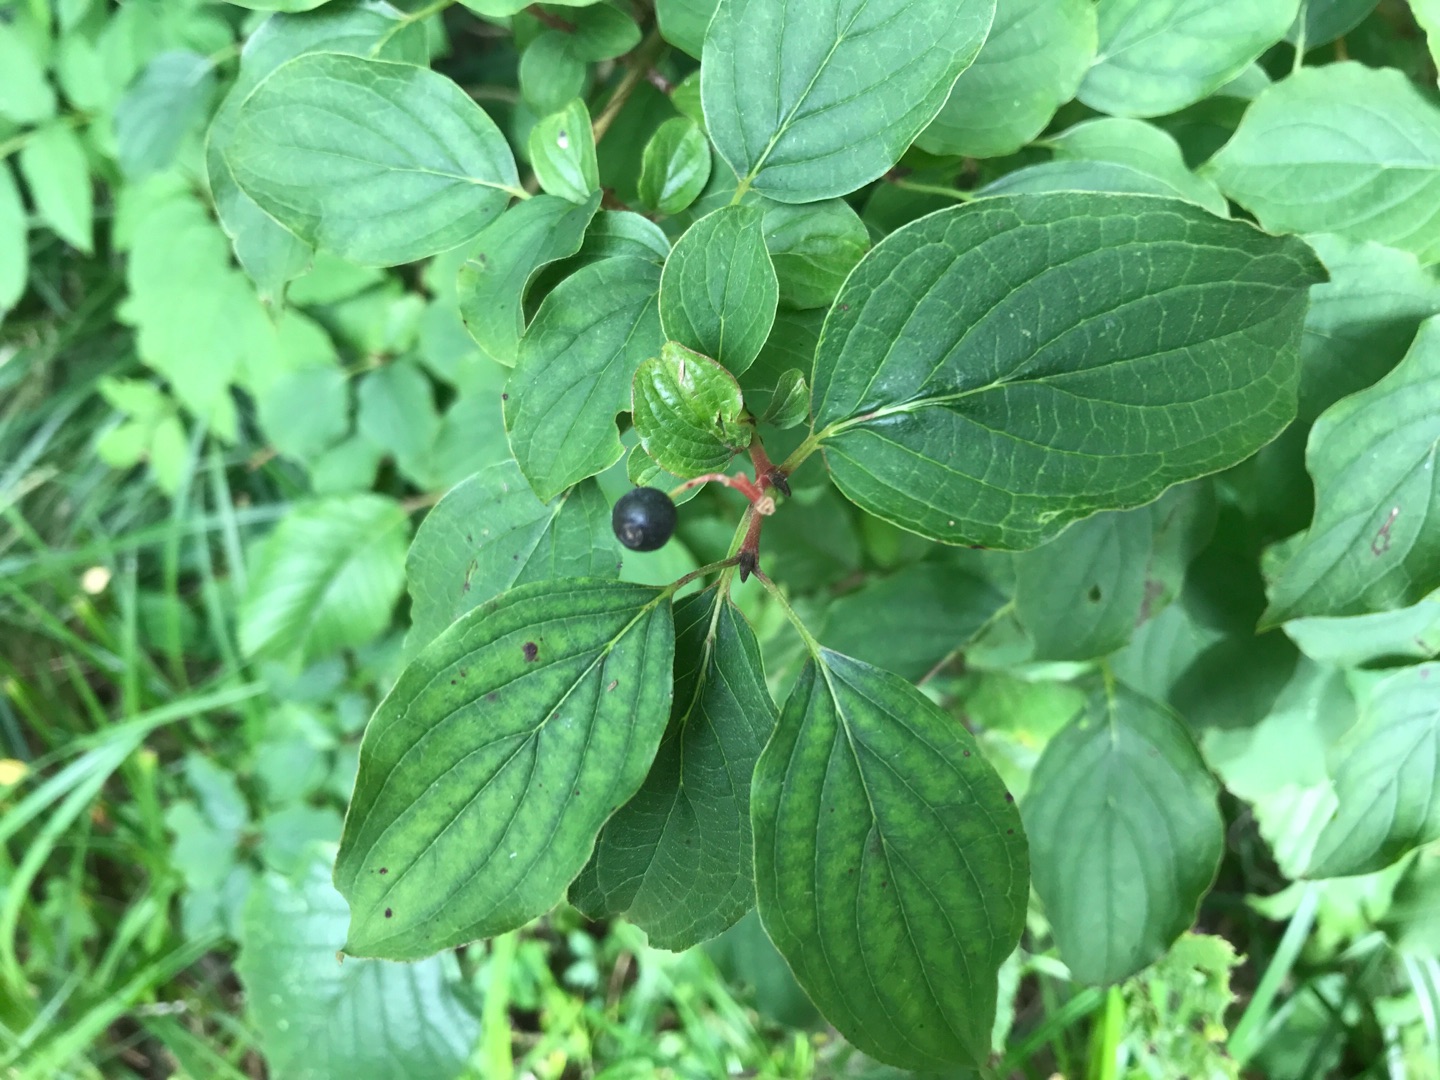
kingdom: Plantae
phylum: Tracheophyta
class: Magnoliopsida
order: Cornales
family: Cornaceae
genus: Cornus
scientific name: Cornus sanguinea
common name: Rød kornel
